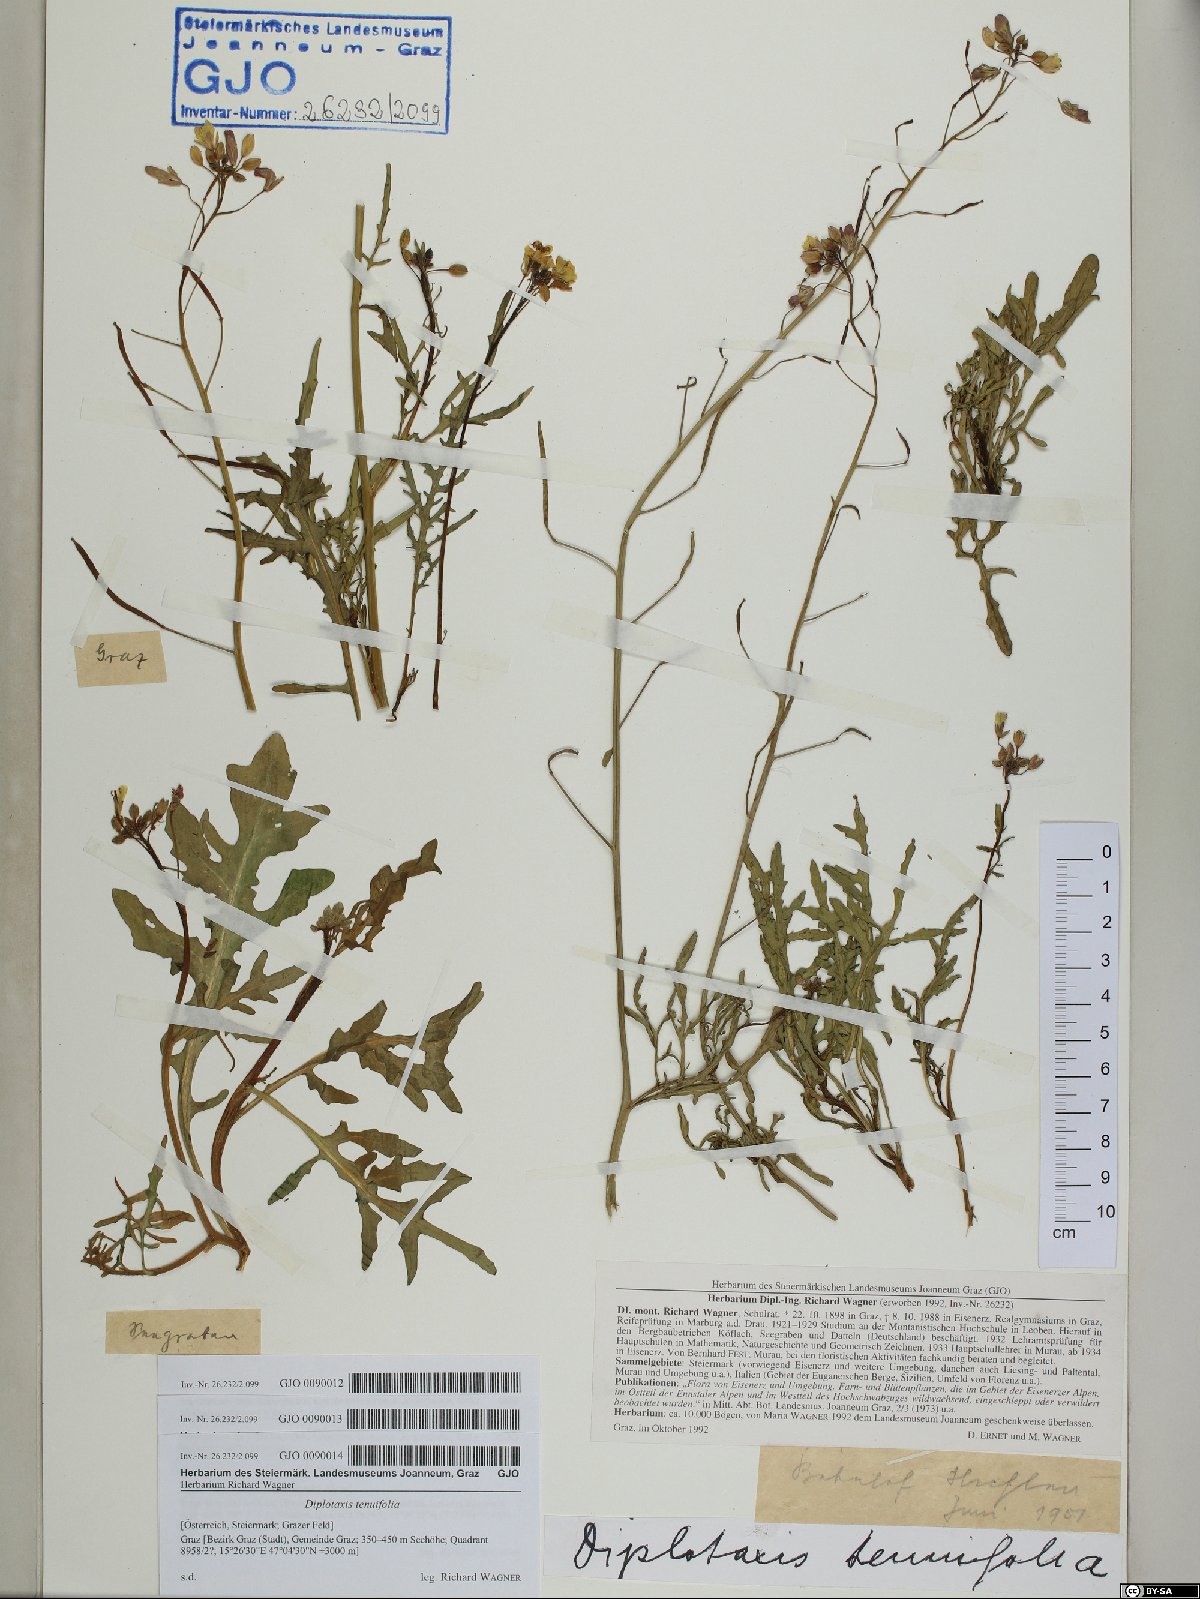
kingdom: Plantae
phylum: Tracheophyta
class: Magnoliopsida
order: Brassicales
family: Brassicaceae
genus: Diplotaxis
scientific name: Diplotaxis tenuifolia
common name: Perennial wall-rocket
